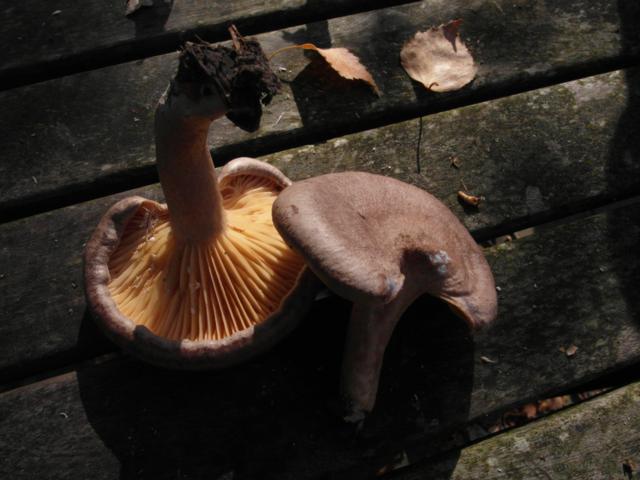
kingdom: Fungi
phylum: Basidiomycota
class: Agaricomycetes
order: Russulales
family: Russulaceae
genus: Lactarius
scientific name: Lactarius pyrogalus
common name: hassel-mælkehat
